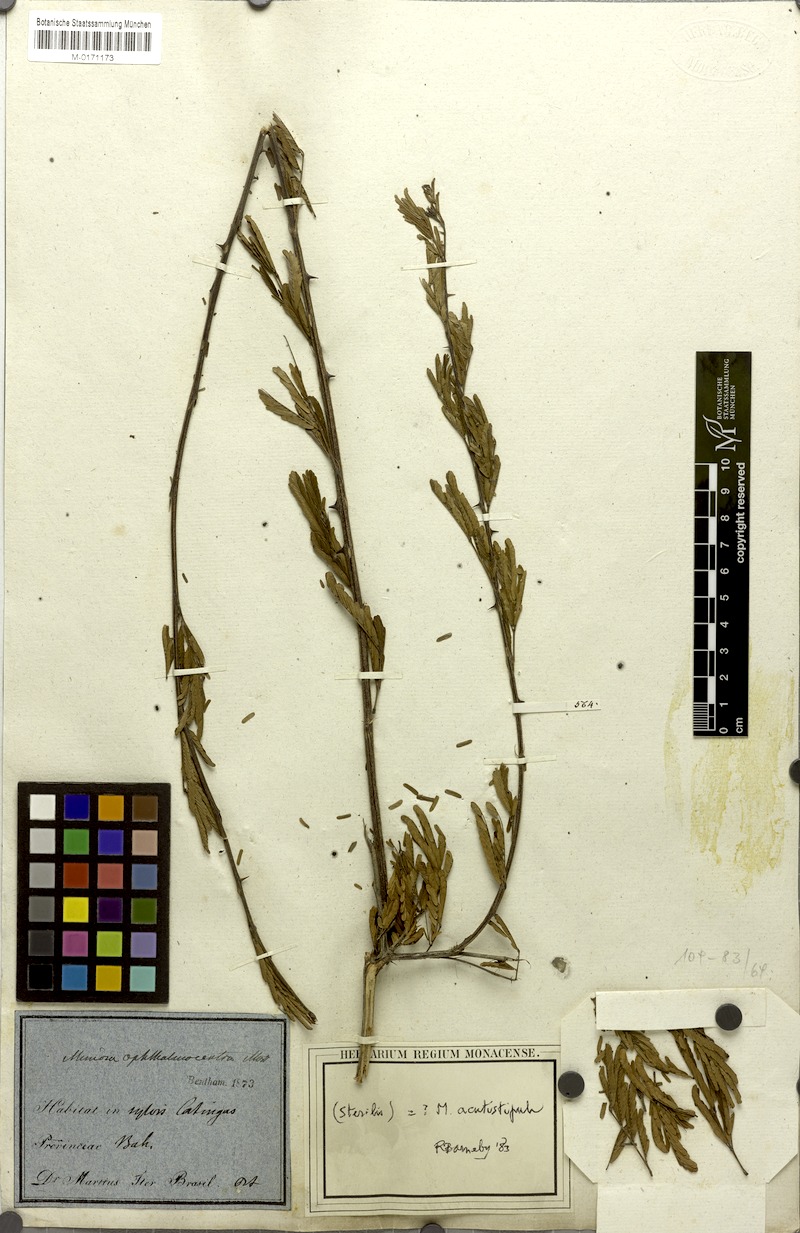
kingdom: Plantae
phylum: Tracheophyta
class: Magnoliopsida
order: Fabales
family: Fabaceae
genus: Mimosa
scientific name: Mimosa ophthalmocentra
